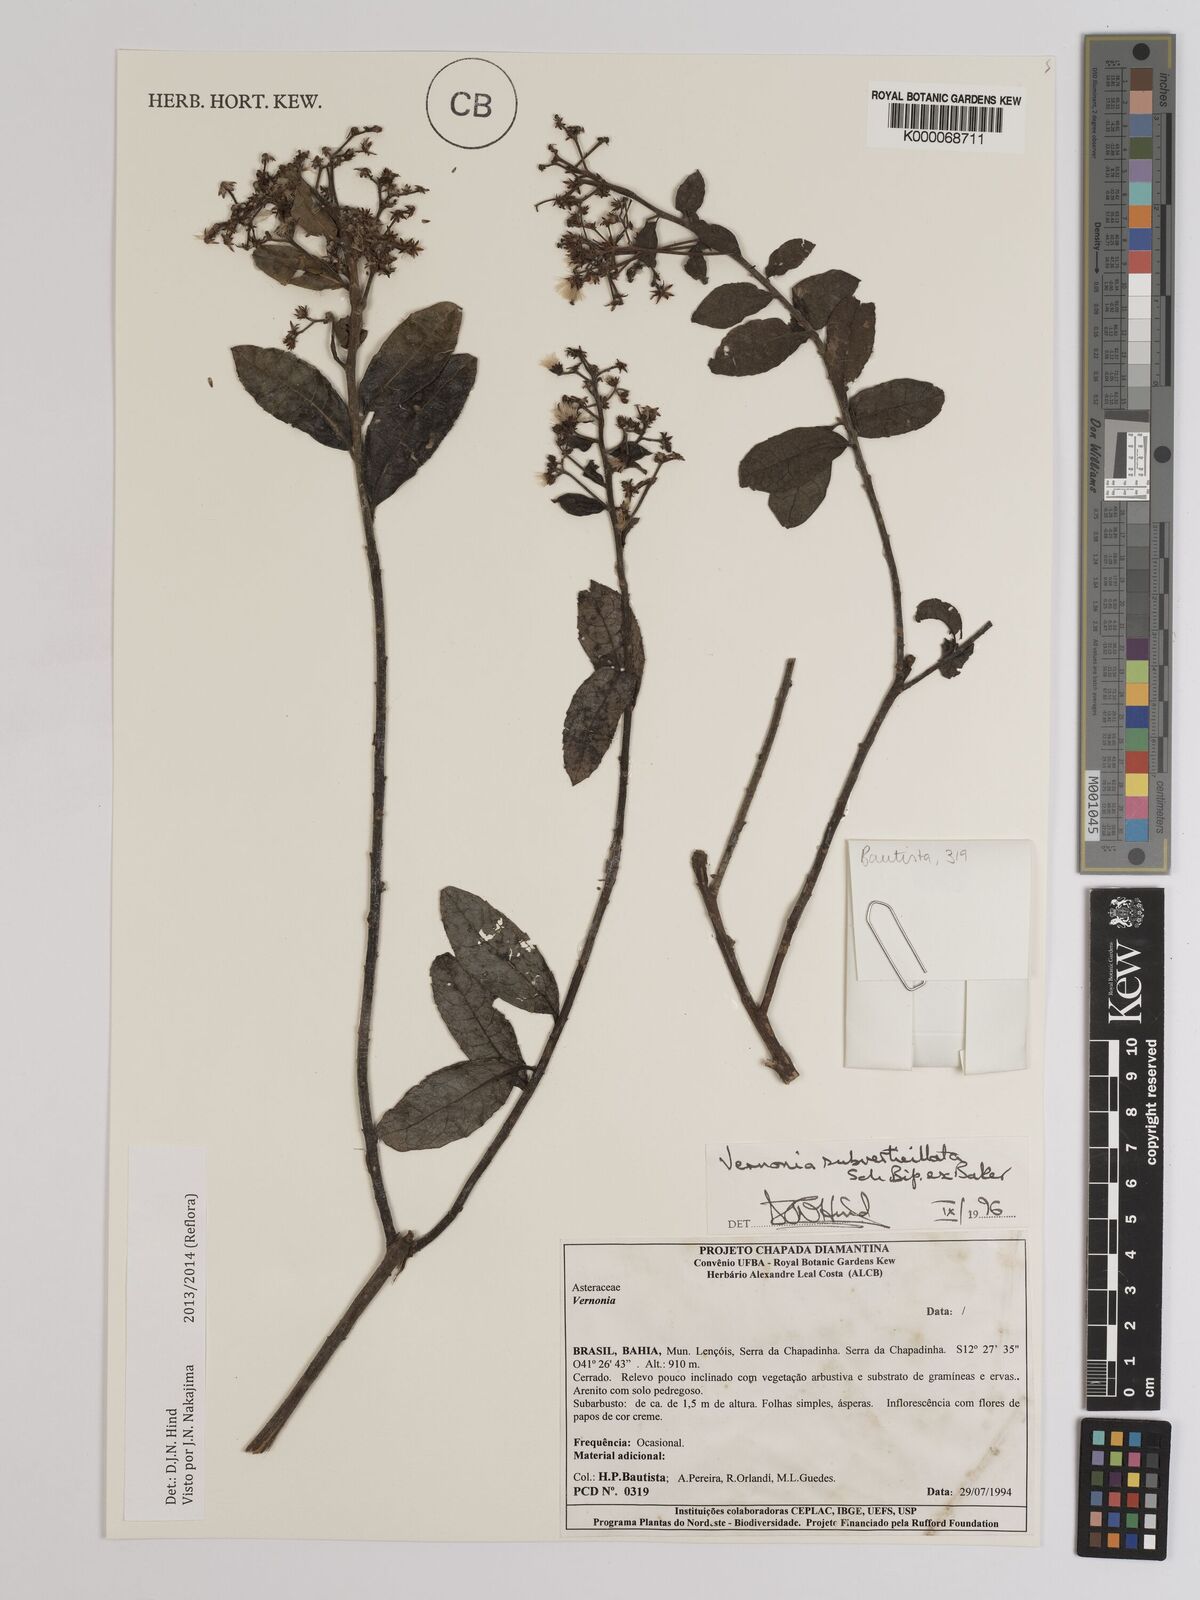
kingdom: Plantae
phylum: Tracheophyta
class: Magnoliopsida
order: Asterales
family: Asteraceae
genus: Vernonia
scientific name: Vernonia
